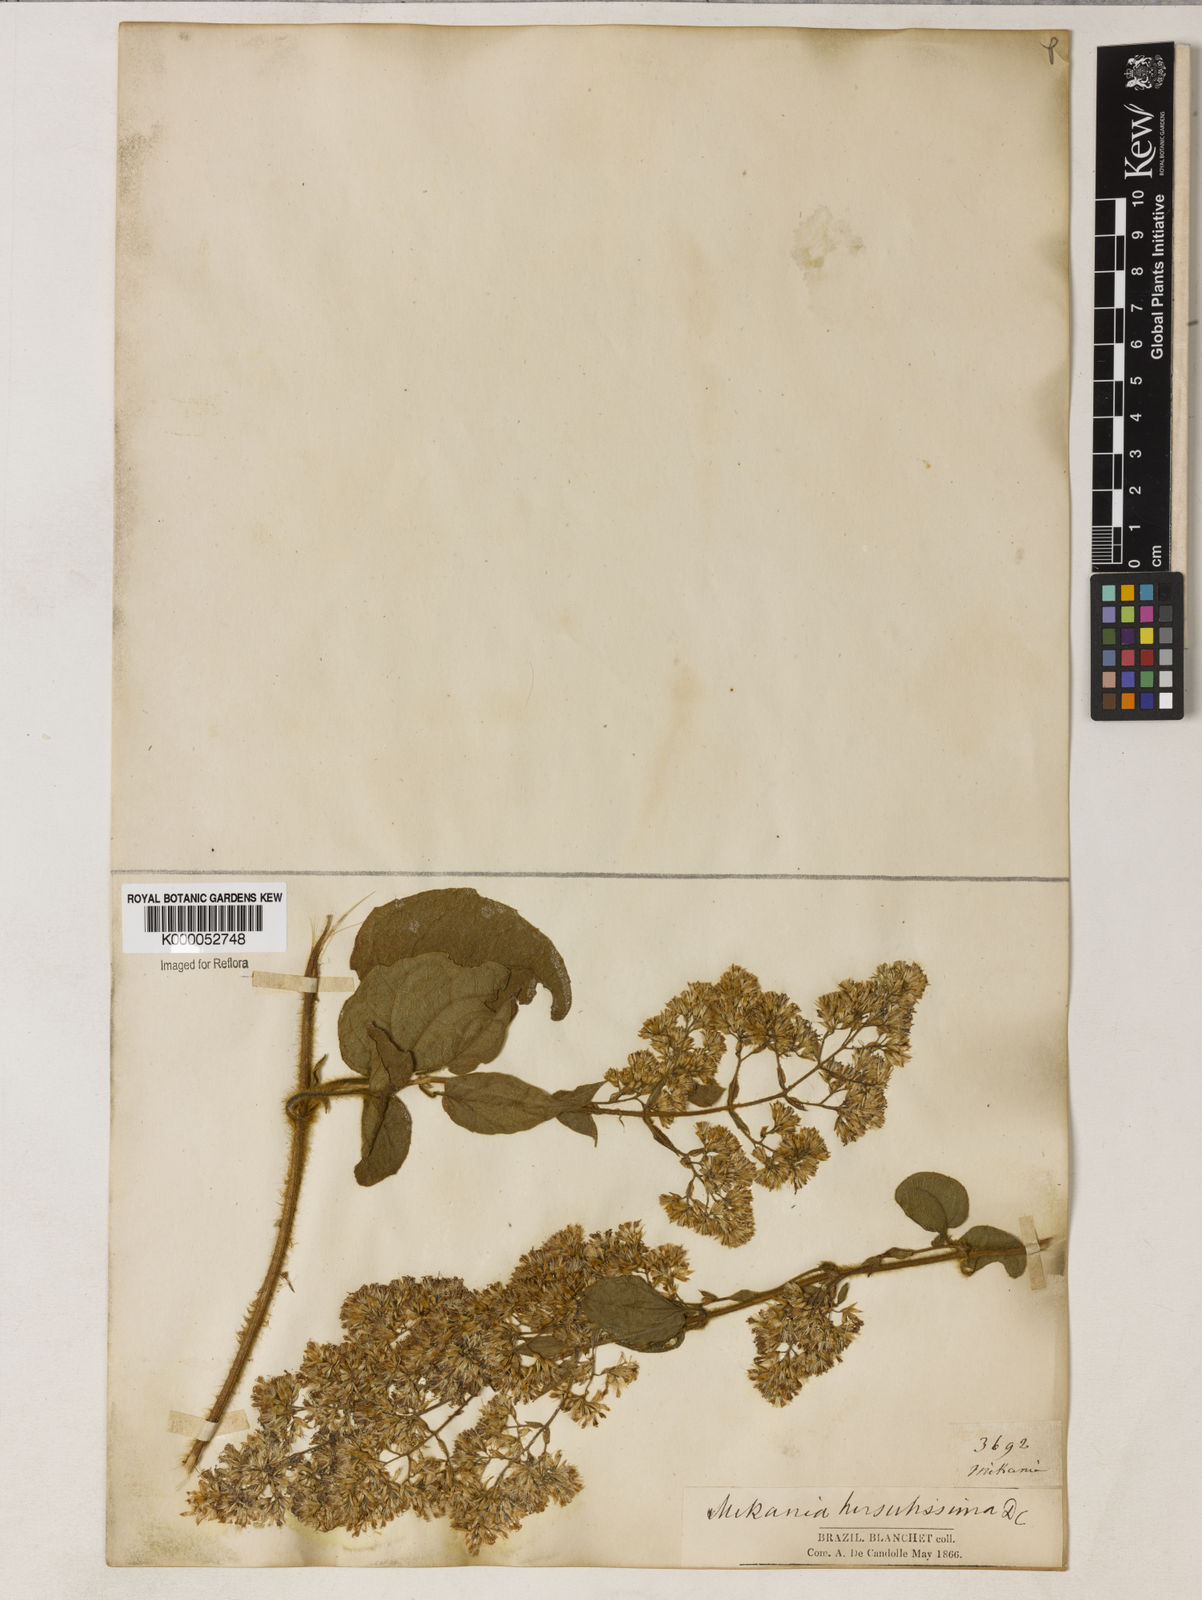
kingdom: Plantae
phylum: Tracheophyta
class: Magnoliopsida
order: Asterales
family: Asteraceae
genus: Mikania
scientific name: Mikania banisteriae
